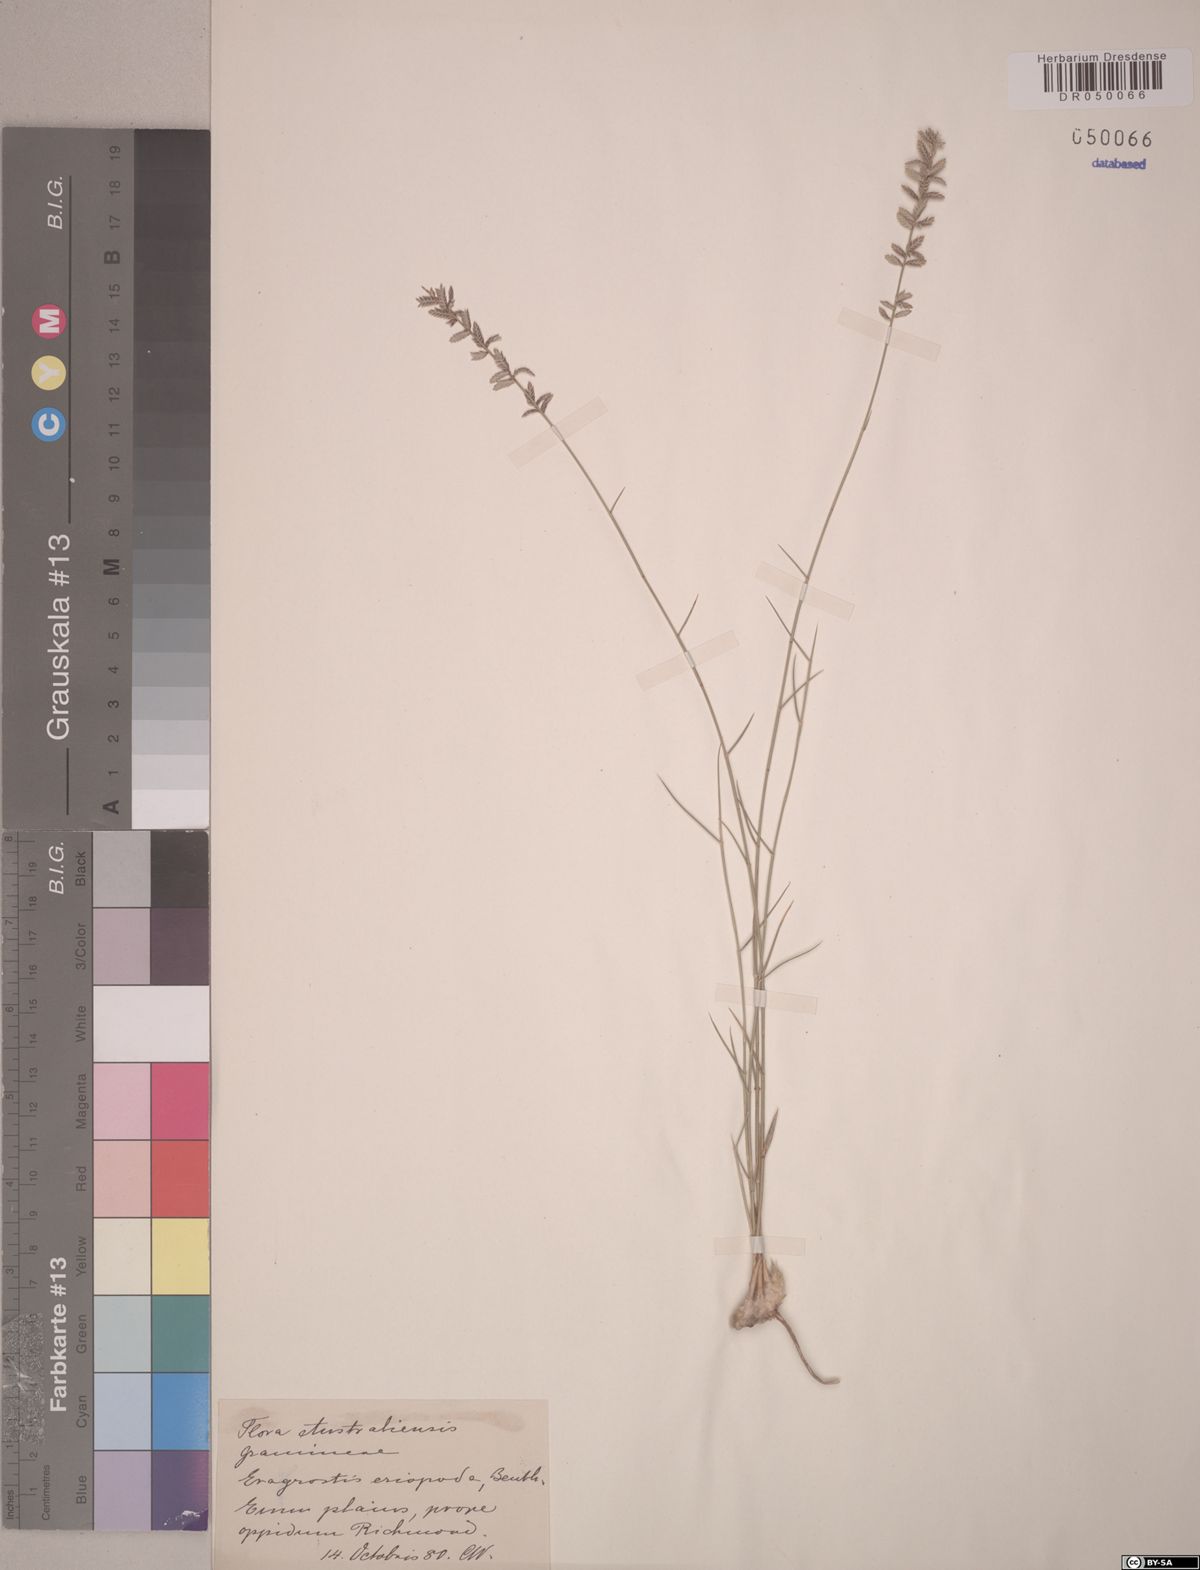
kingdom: Plantae
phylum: Tracheophyta
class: Liliopsida
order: Poales
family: Poaceae
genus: Eragrostis
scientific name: Eragrostis eriopoda
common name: Plain neverfail
